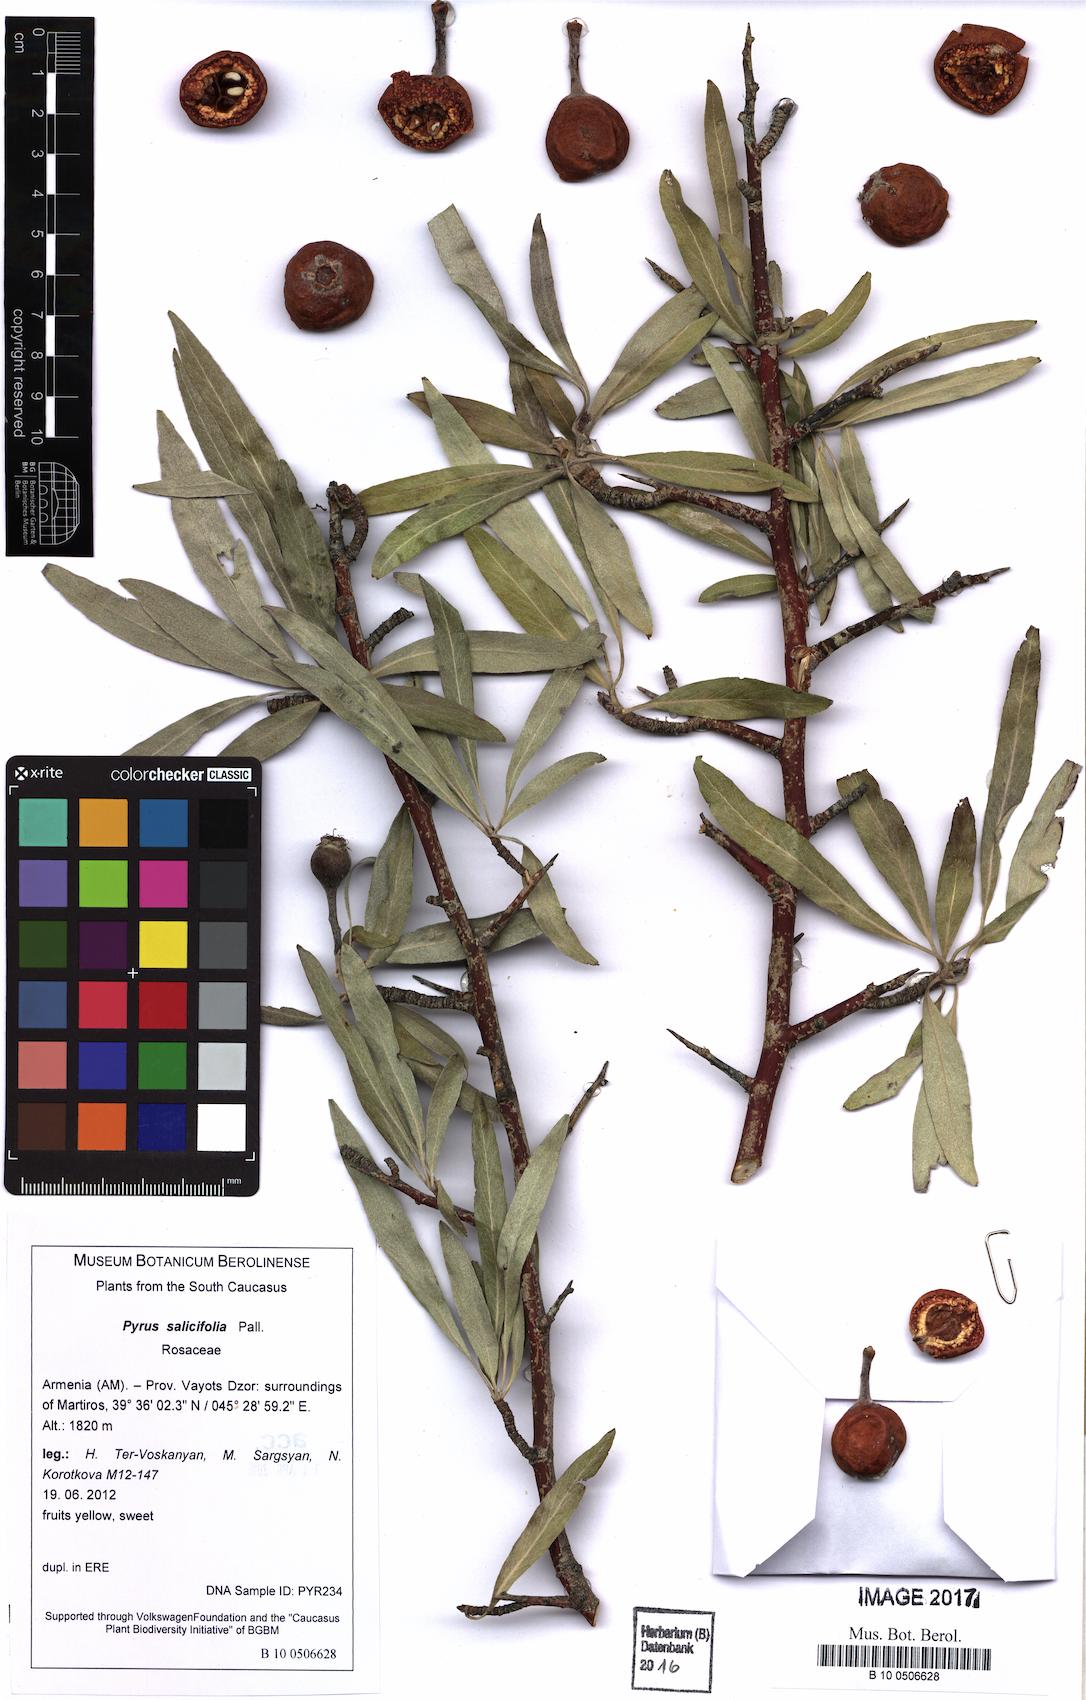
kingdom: Plantae
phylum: Tracheophyta
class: Magnoliopsida
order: Rosales
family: Rosaceae
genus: Pyrus
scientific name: Pyrus salicifolia
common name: Willow-leaved pear
